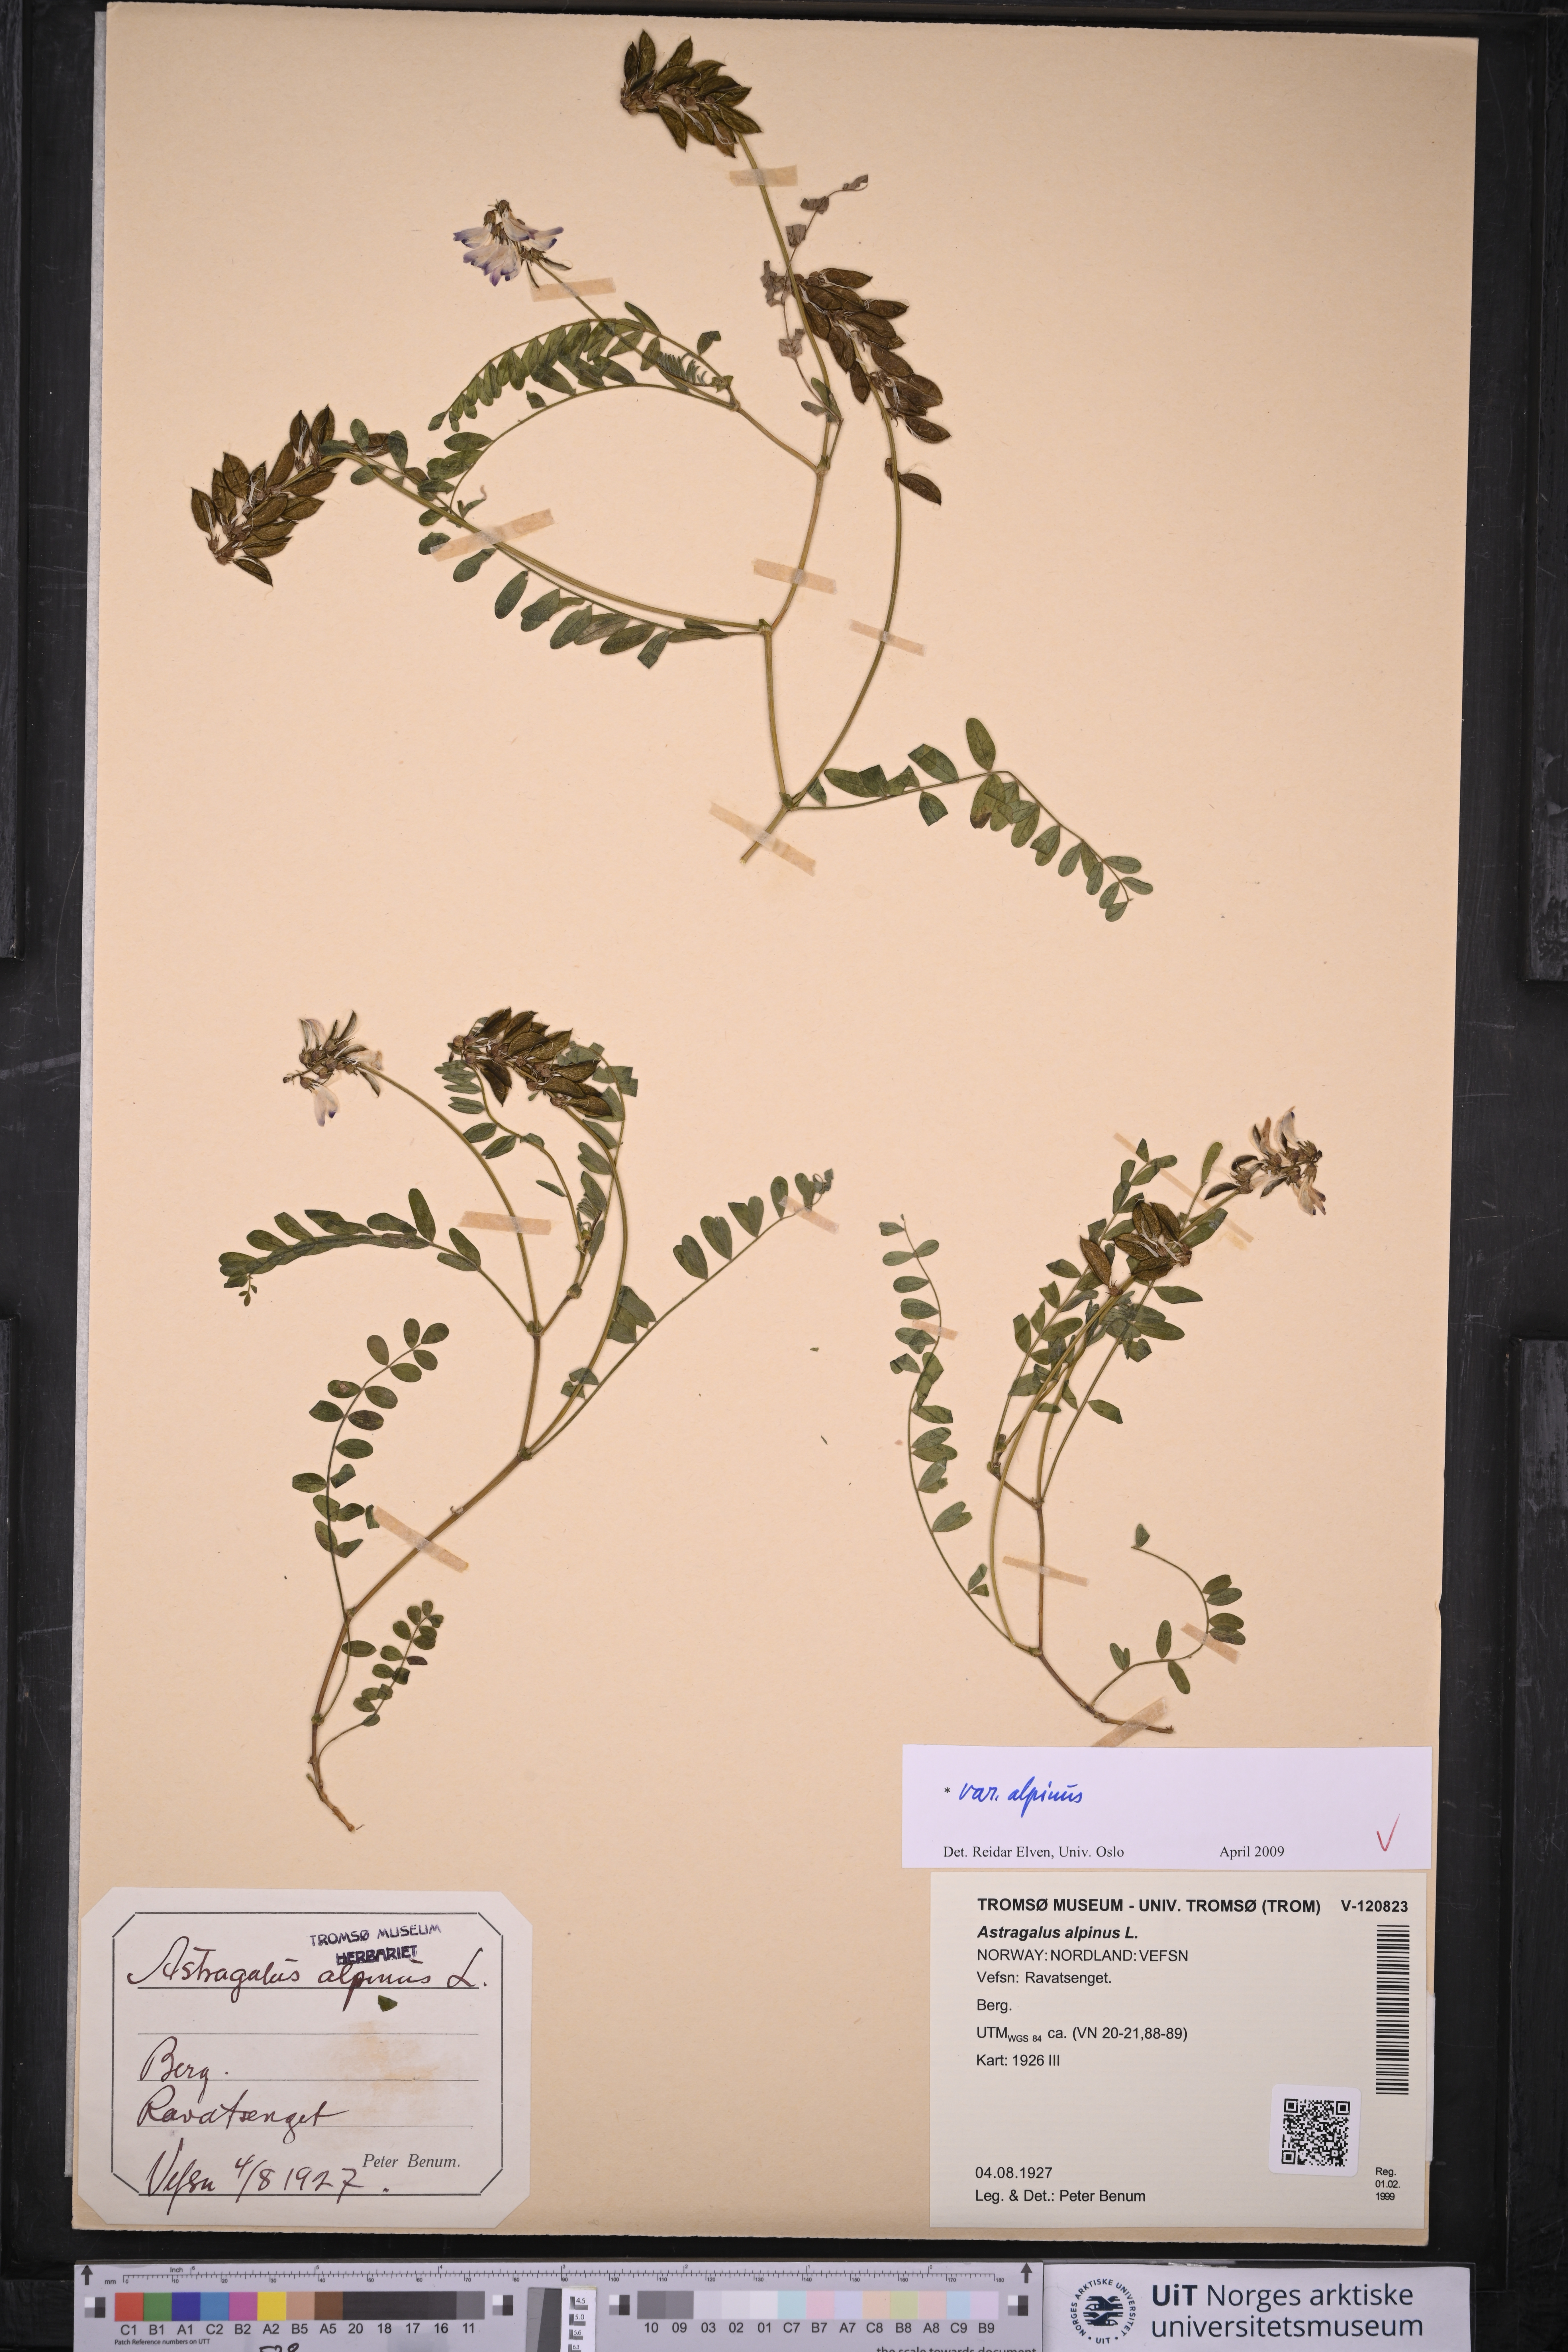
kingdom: Plantae
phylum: Tracheophyta
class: Magnoliopsida
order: Fabales
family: Fabaceae
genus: Astragalus
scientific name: Astragalus alpinus
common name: Alpine milk-vetch
